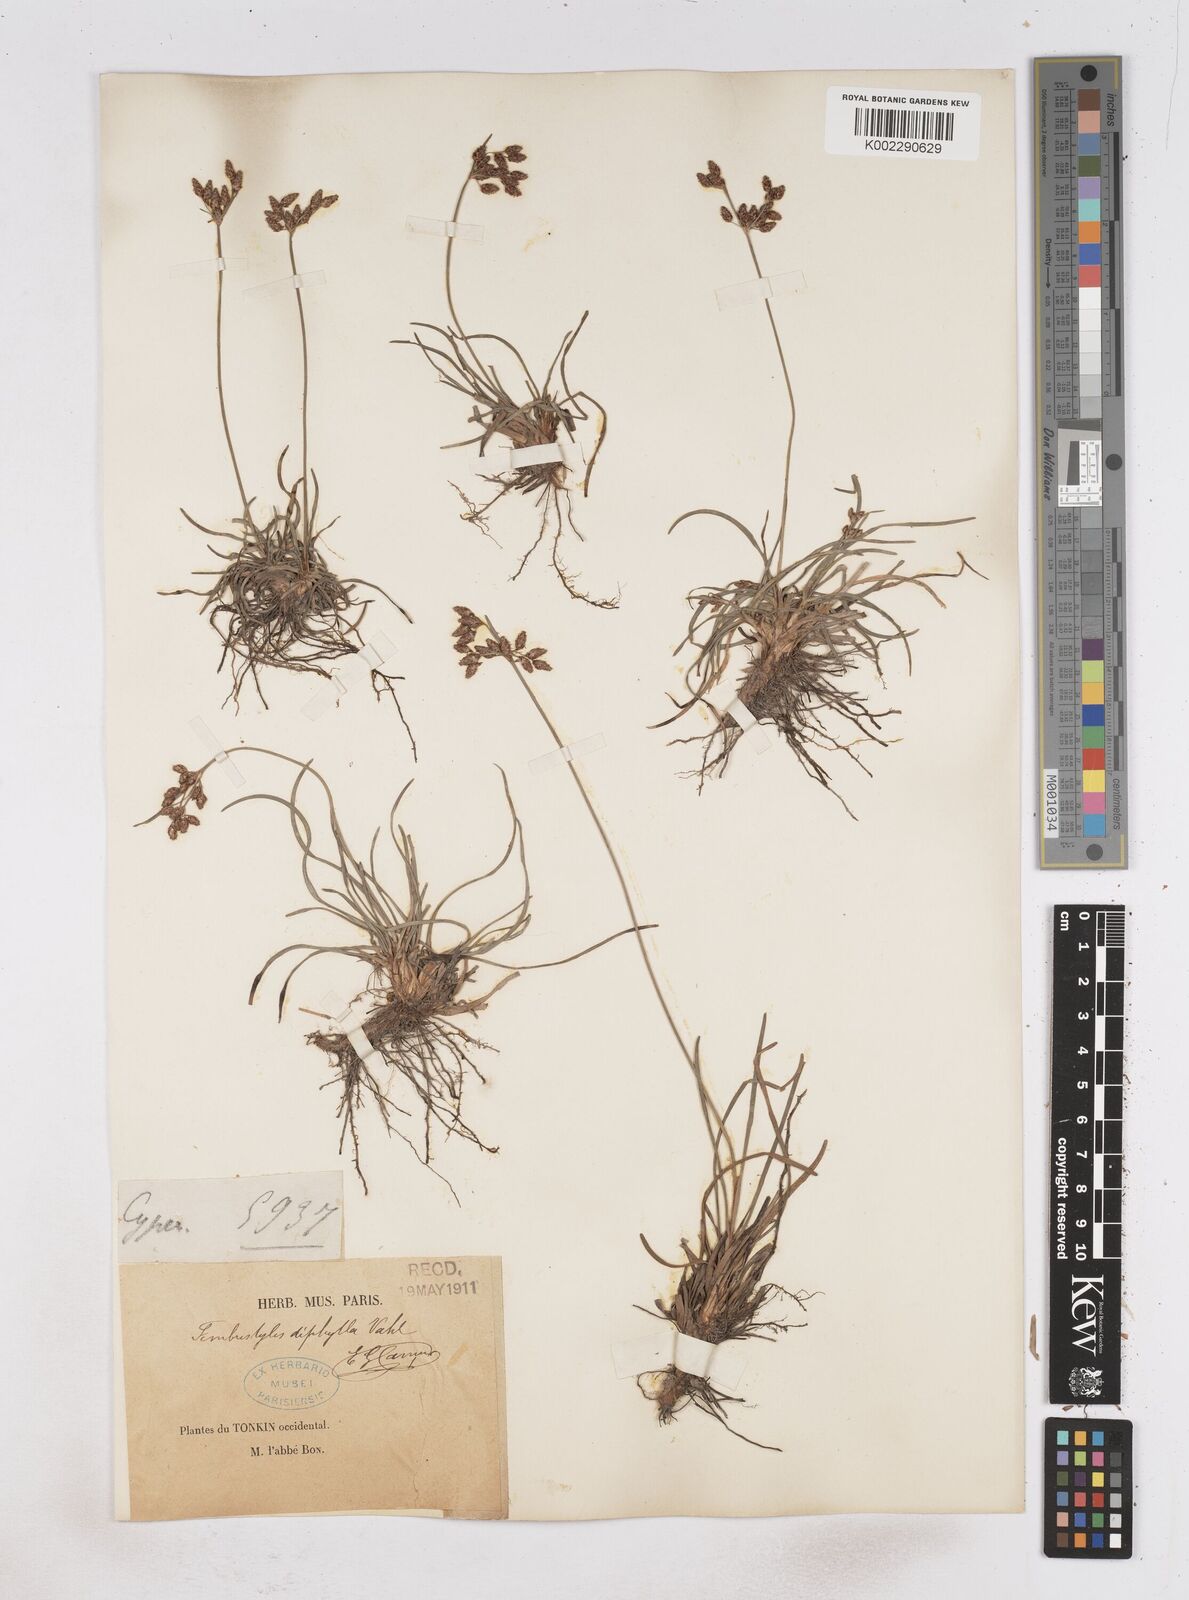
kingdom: Plantae
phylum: Tracheophyta
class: Liliopsida
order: Poales
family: Cyperaceae
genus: Fimbristylis
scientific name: Fimbristylis dichotoma
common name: Forked fimbry
